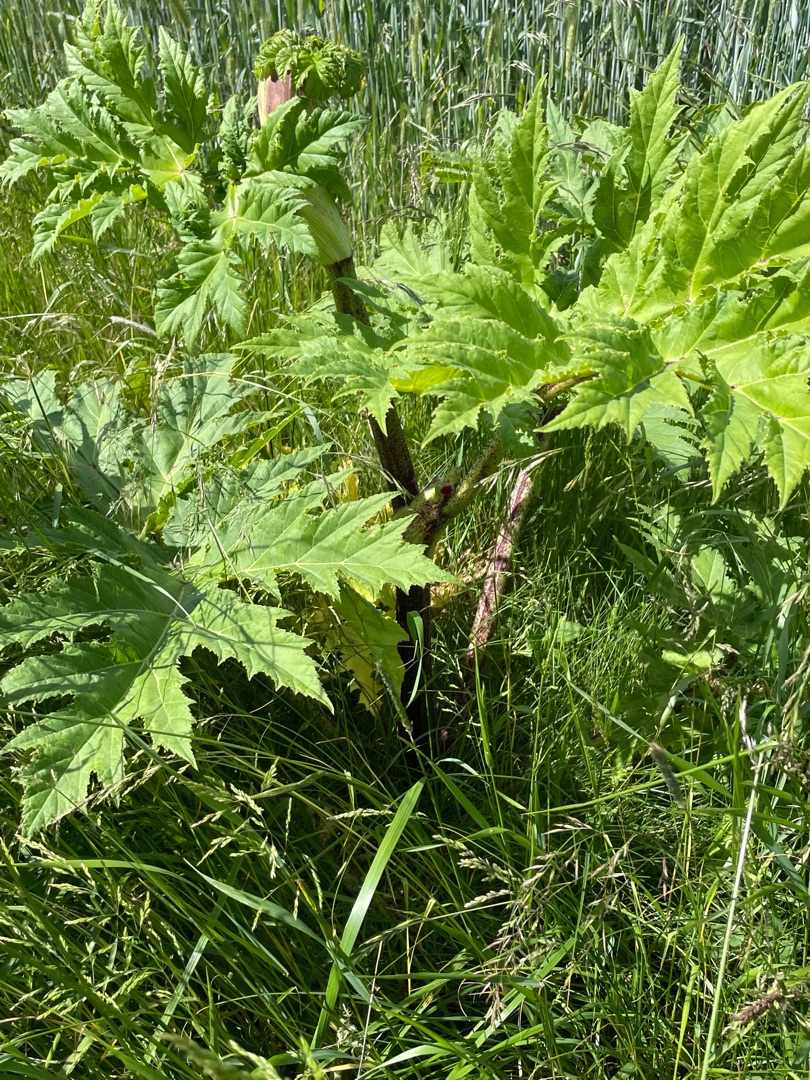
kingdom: Plantae
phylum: Tracheophyta
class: Magnoliopsida
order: Apiales
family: Apiaceae
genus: Heracleum
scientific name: Heracleum mantegazzianum
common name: Kæmpe-bjørneklo
